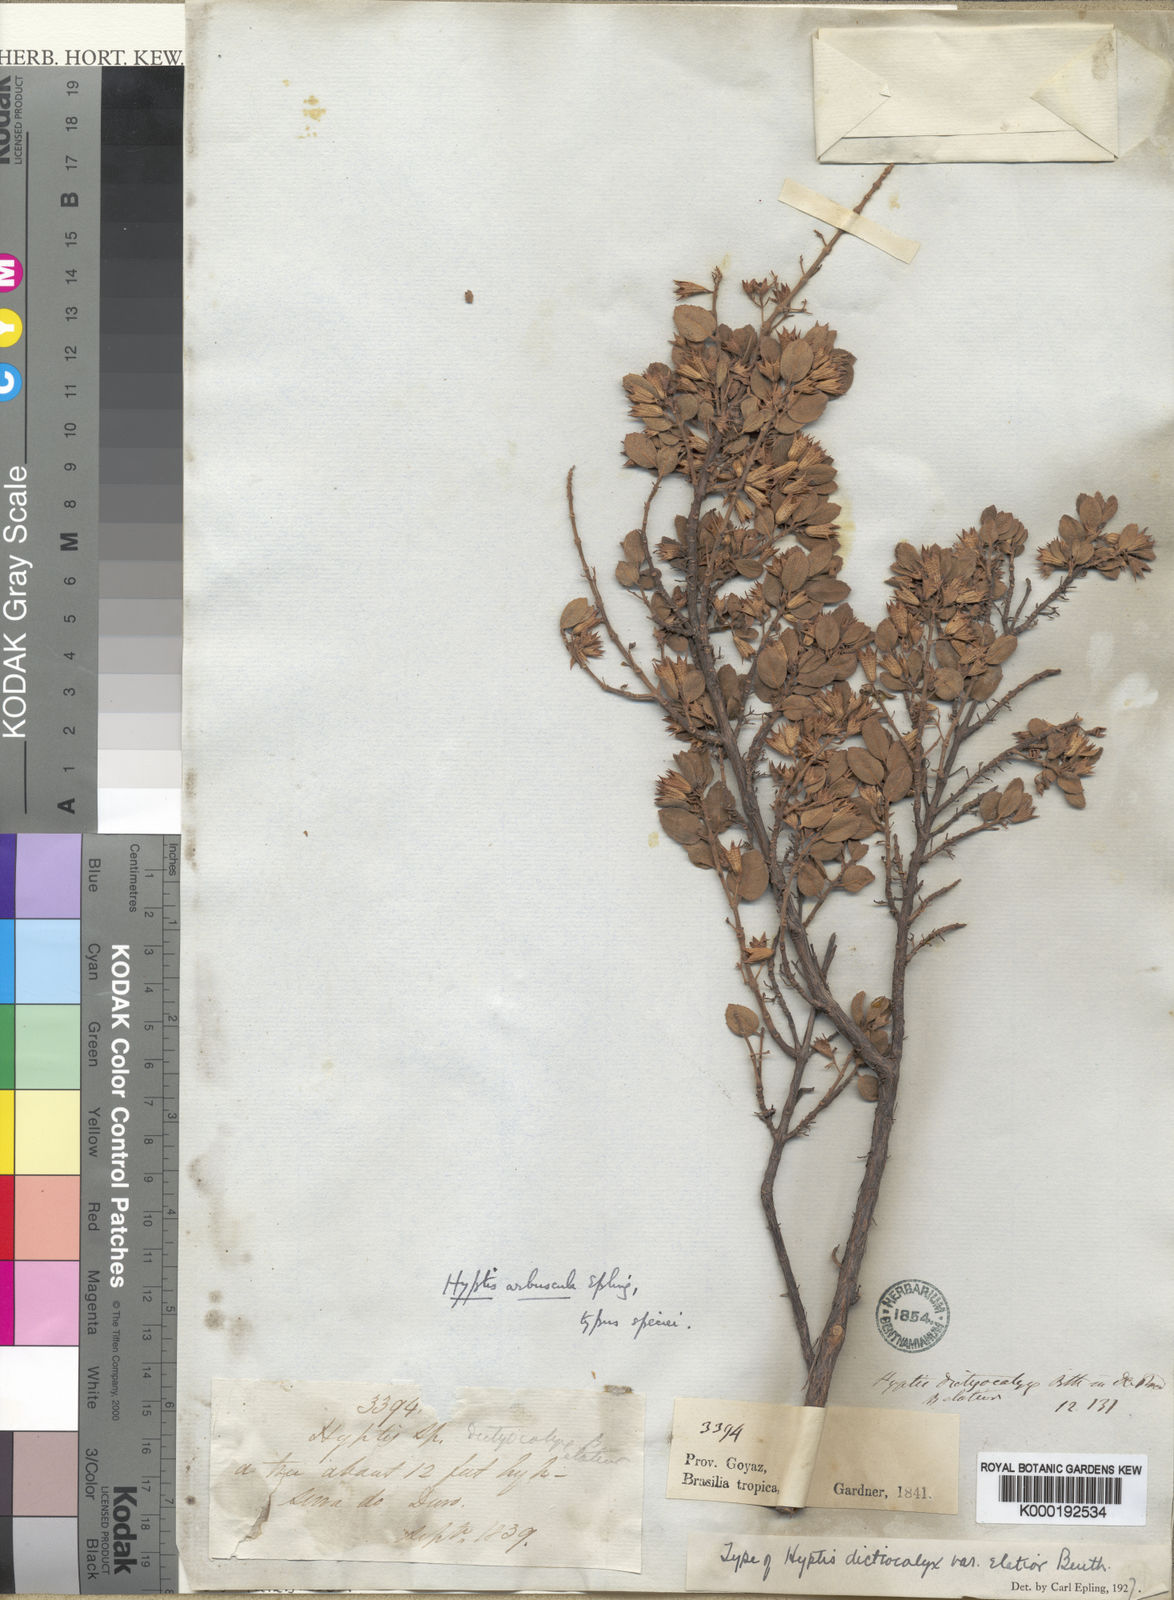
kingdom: Plantae
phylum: Tracheophyta
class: Magnoliopsida
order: Lamiales
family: Lamiaceae
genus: Hyptidendron
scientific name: Hyptidendron arbusculum
